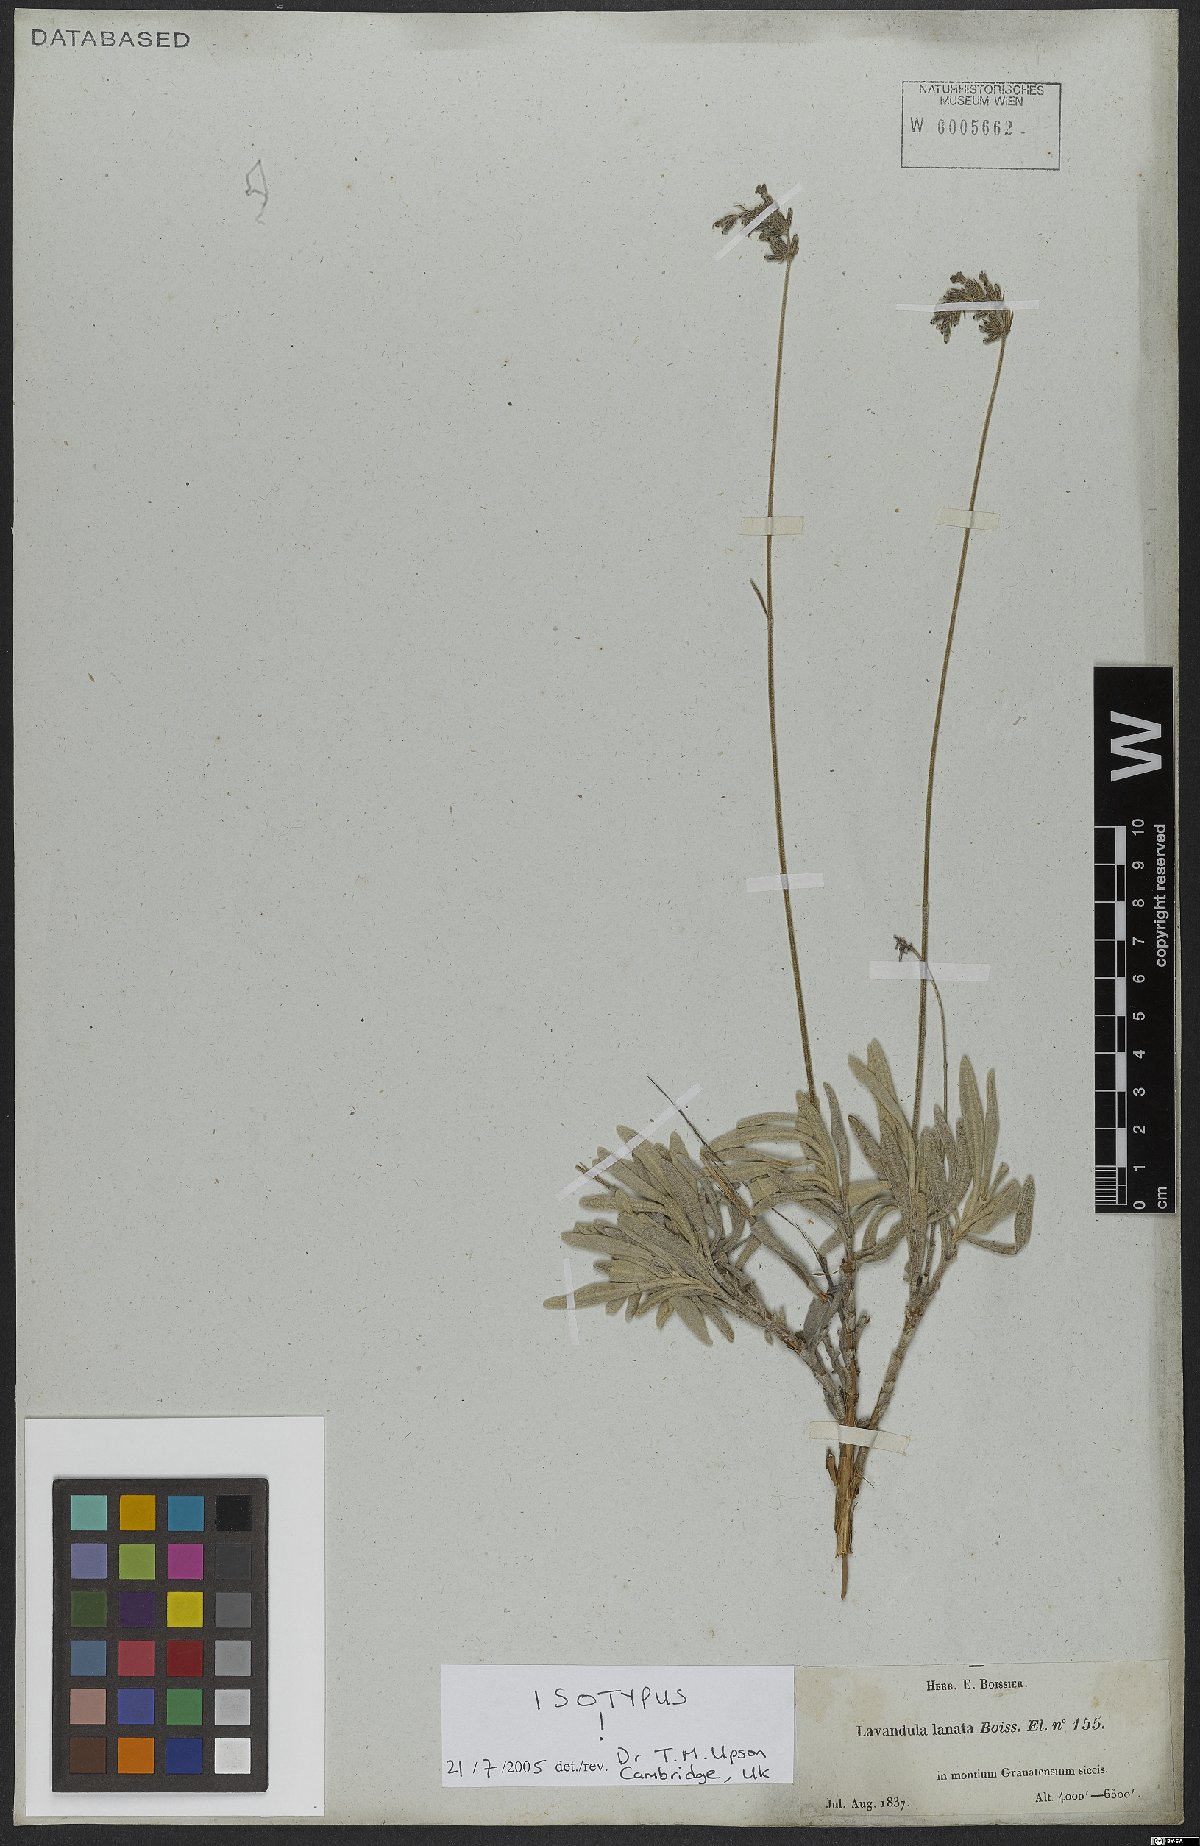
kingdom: Plantae
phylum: Tracheophyta
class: Magnoliopsida
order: Lamiales
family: Lamiaceae
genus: Lavandula
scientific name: Lavandula lanata
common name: Woolly lavender
